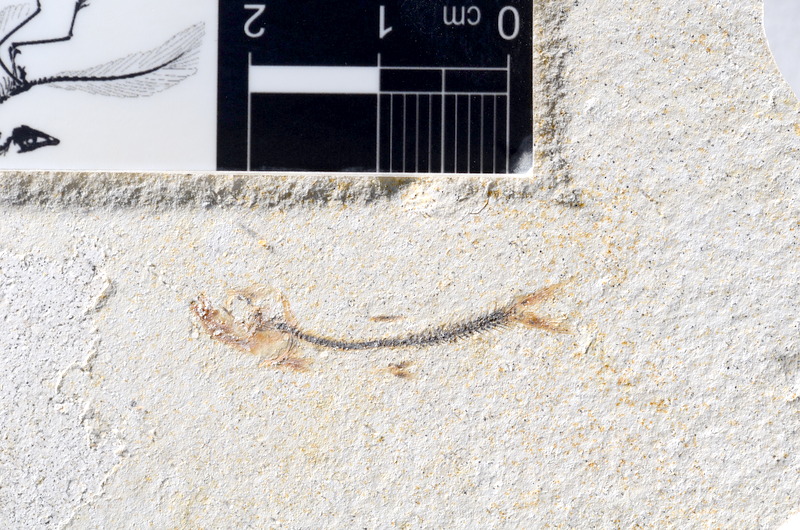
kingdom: Animalia
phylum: Chordata
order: Salmoniformes
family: Orthogonikleithridae
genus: Orthogonikleithrus
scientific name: Orthogonikleithrus hoelli
